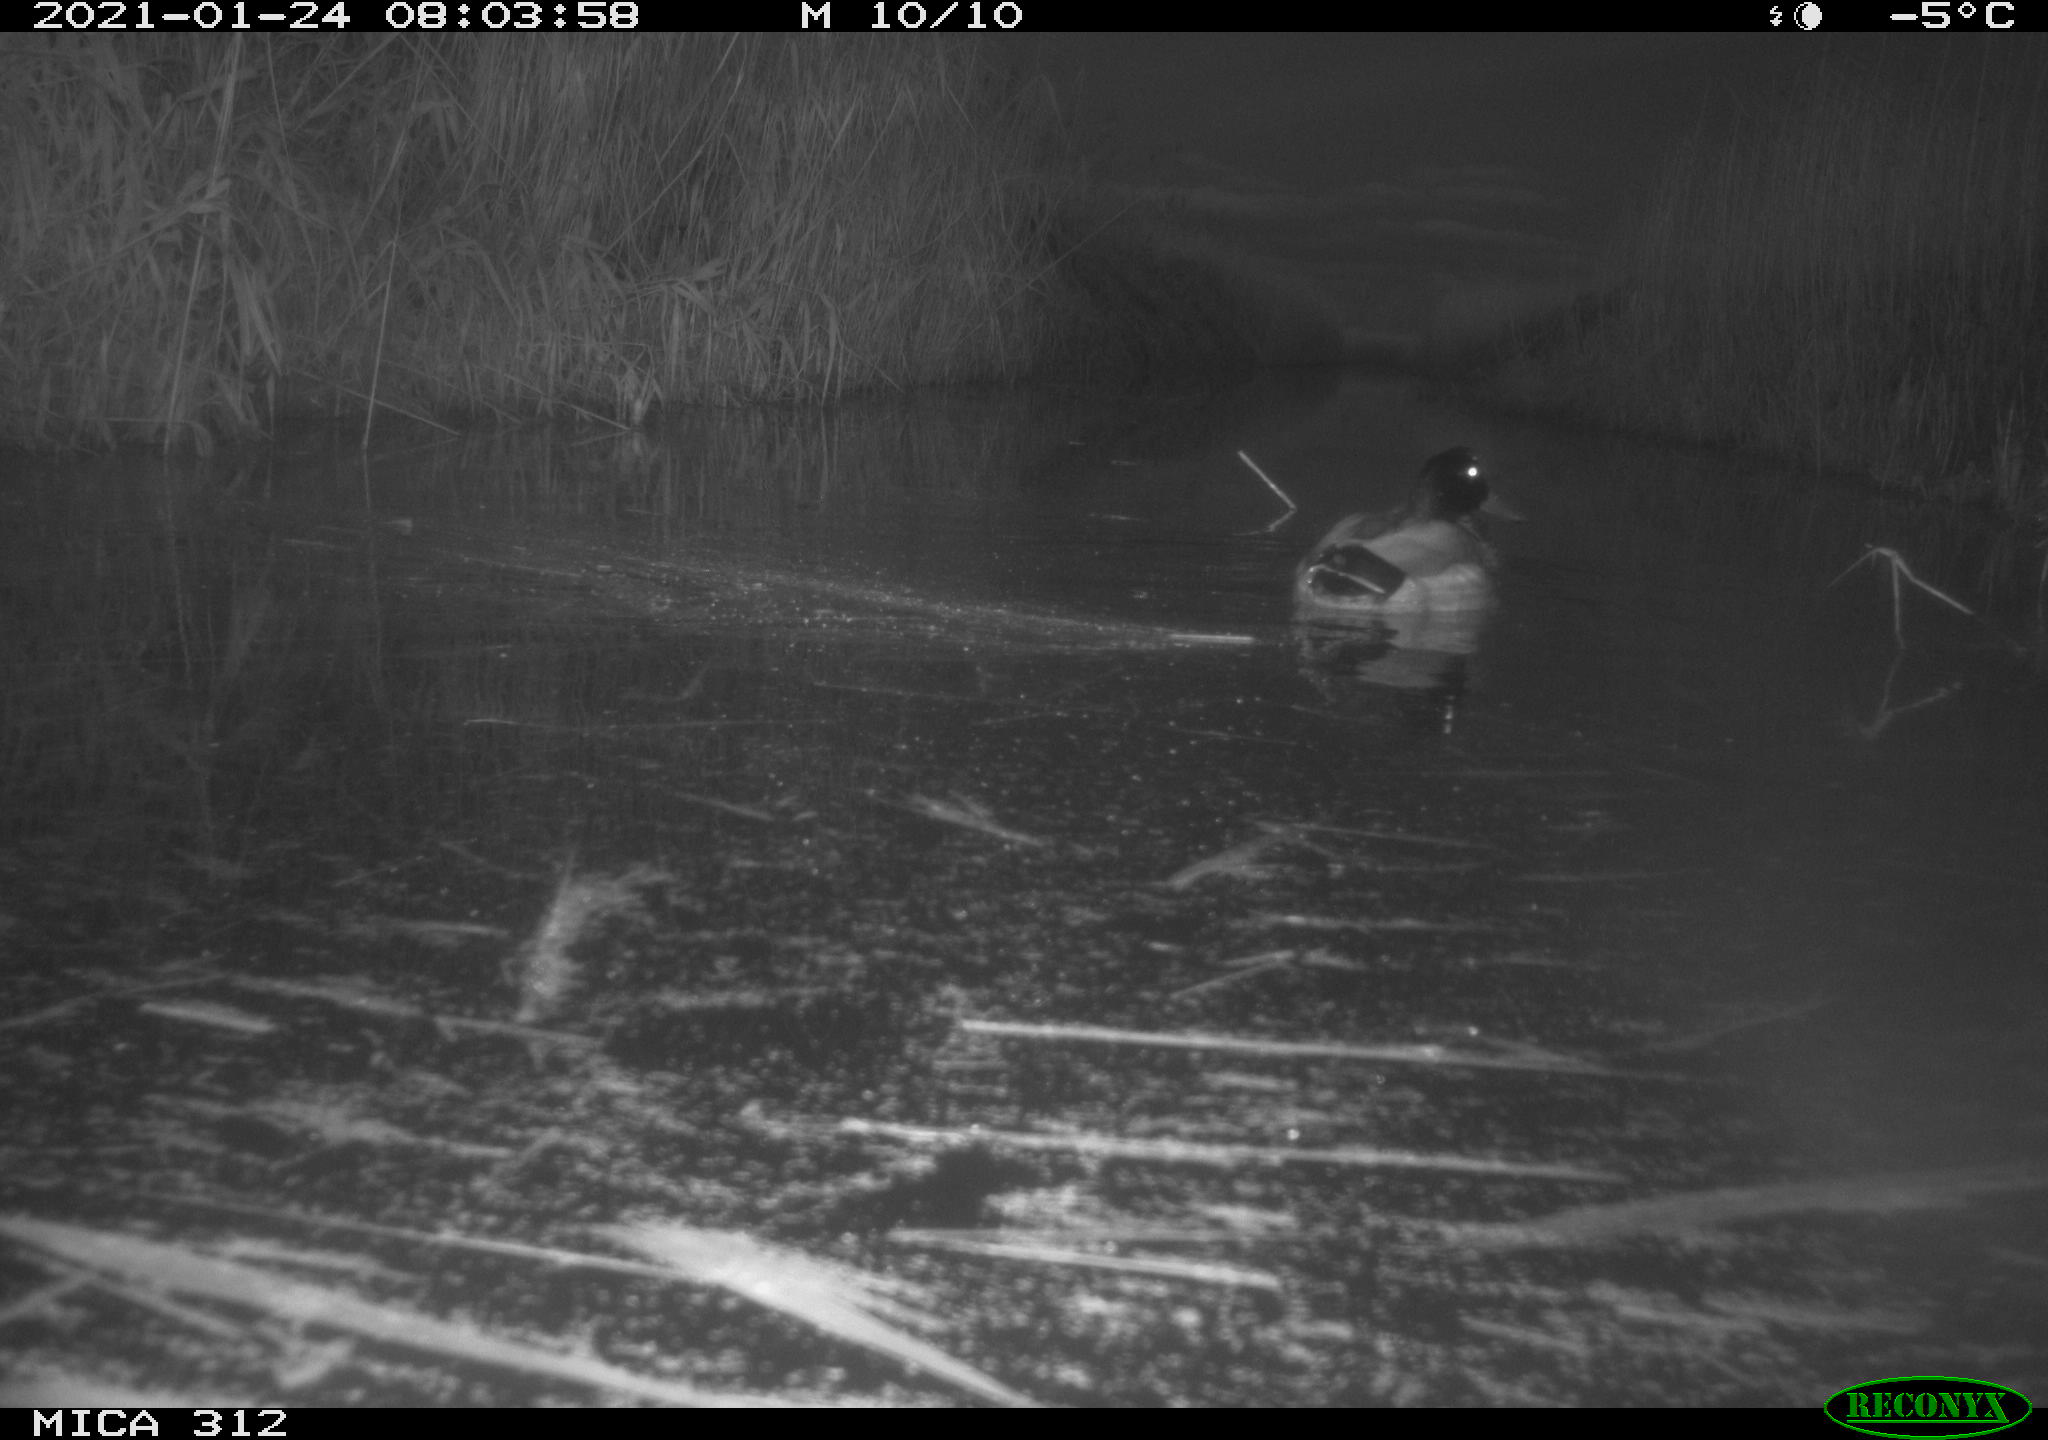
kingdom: Animalia
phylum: Chordata
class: Aves
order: Anseriformes
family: Anatidae
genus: Anas
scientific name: Anas platyrhynchos
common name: Mallard
